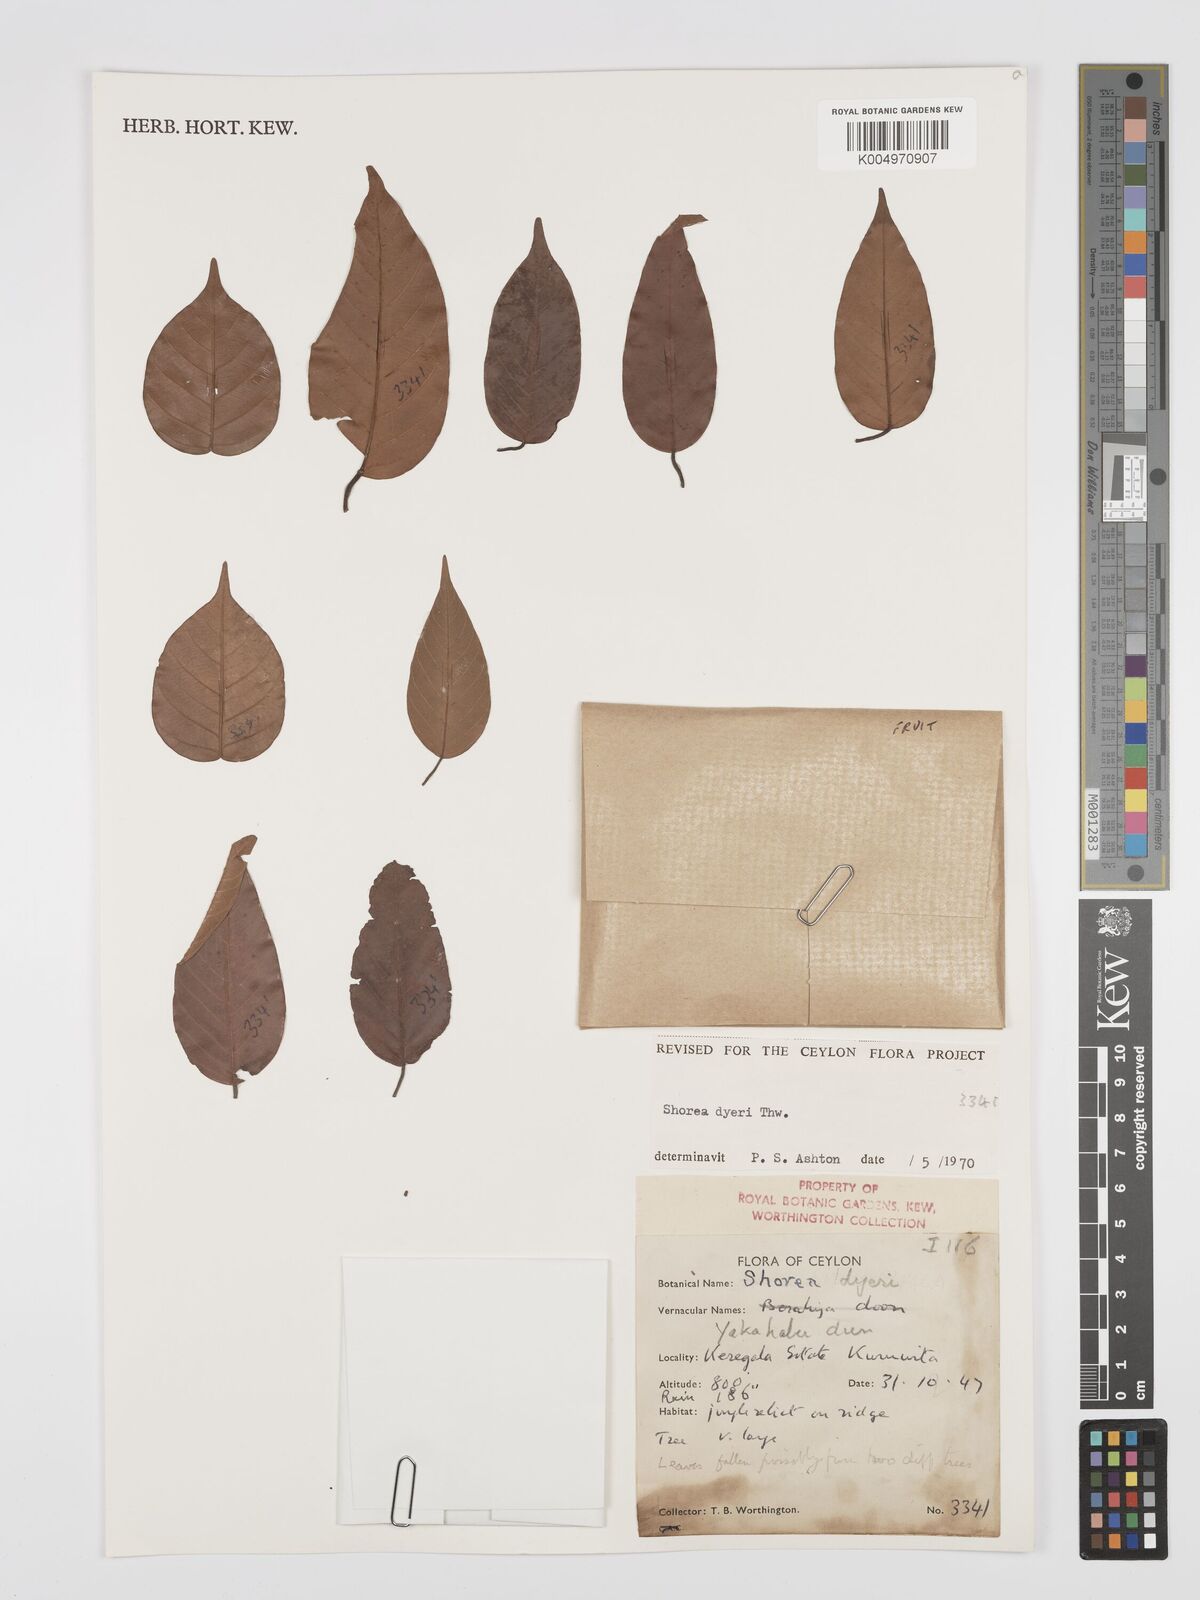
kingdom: Plantae
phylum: Tracheophyta
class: Magnoliopsida
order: Malvales
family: Dipterocarpaceae
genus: Shorea
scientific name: Shorea dyeri
